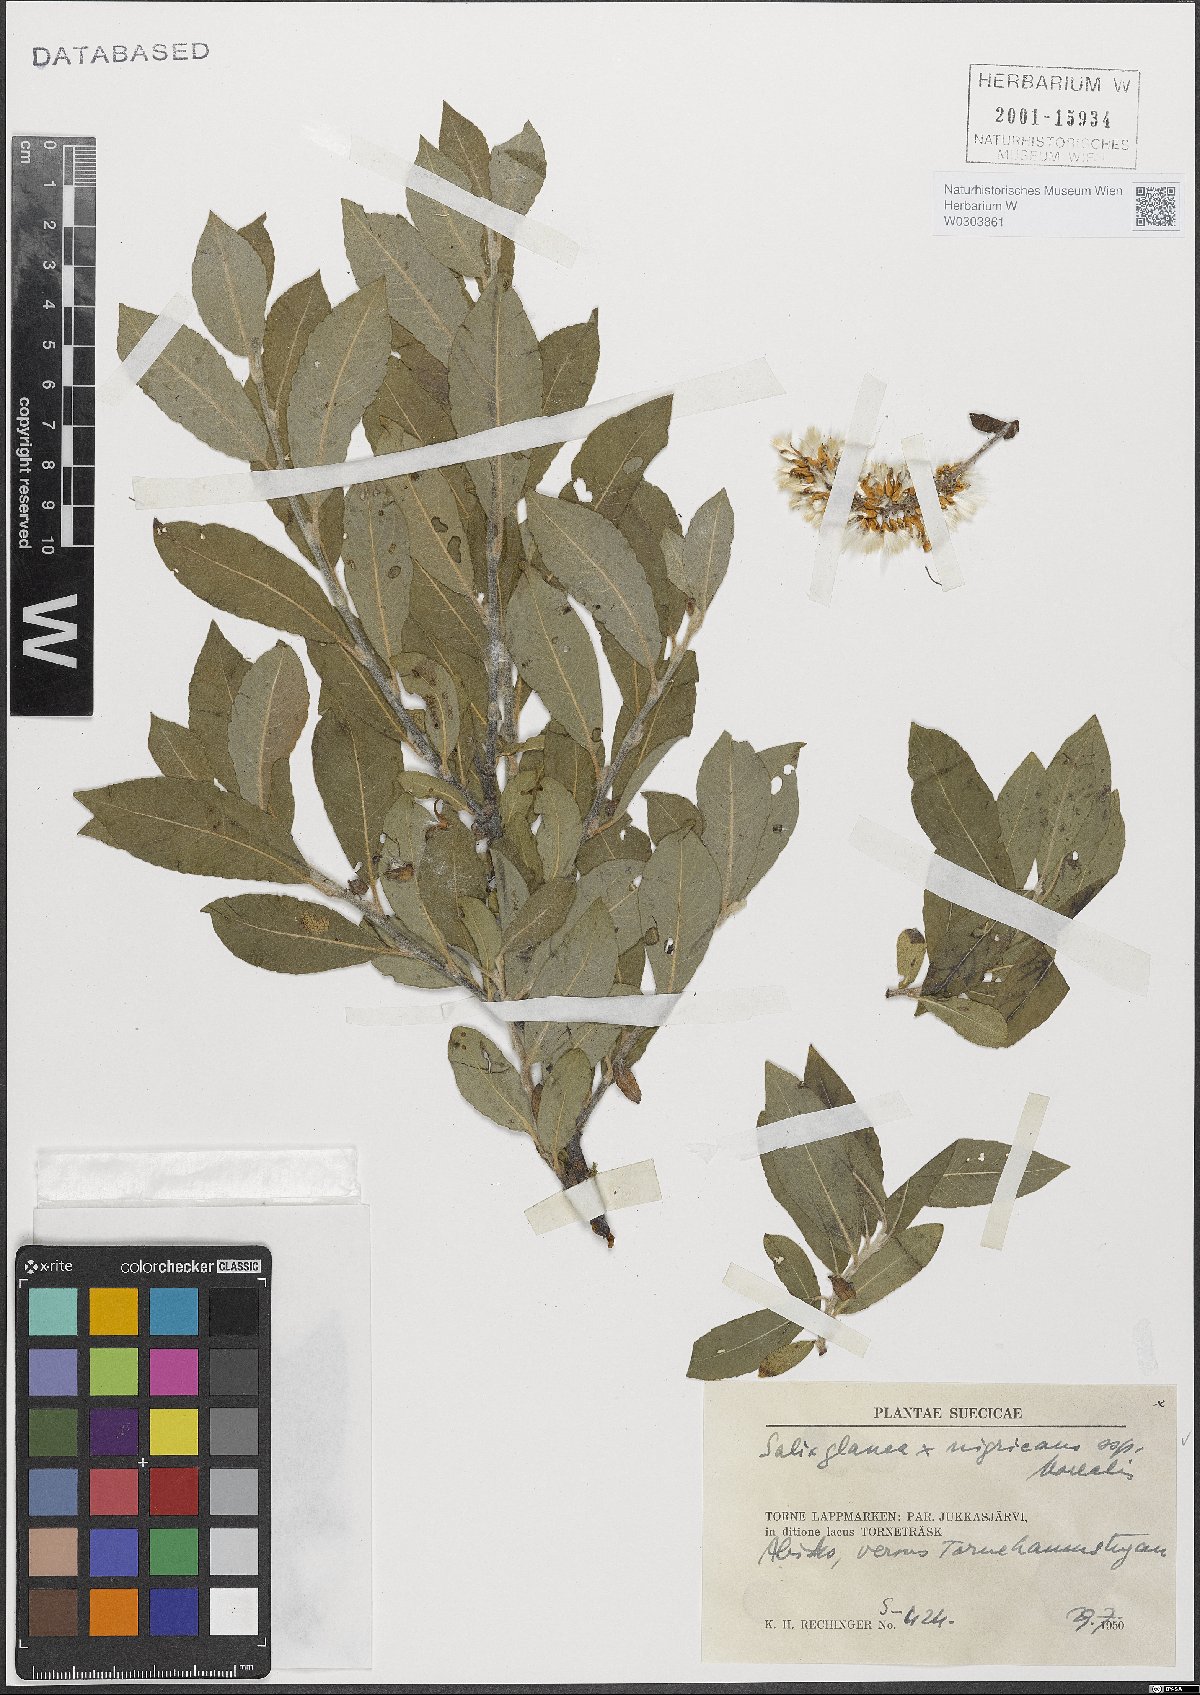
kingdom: Plantae
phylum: Tracheophyta
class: Magnoliopsida
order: Malpighiales
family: Salicaceae
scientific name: Salicaceae
